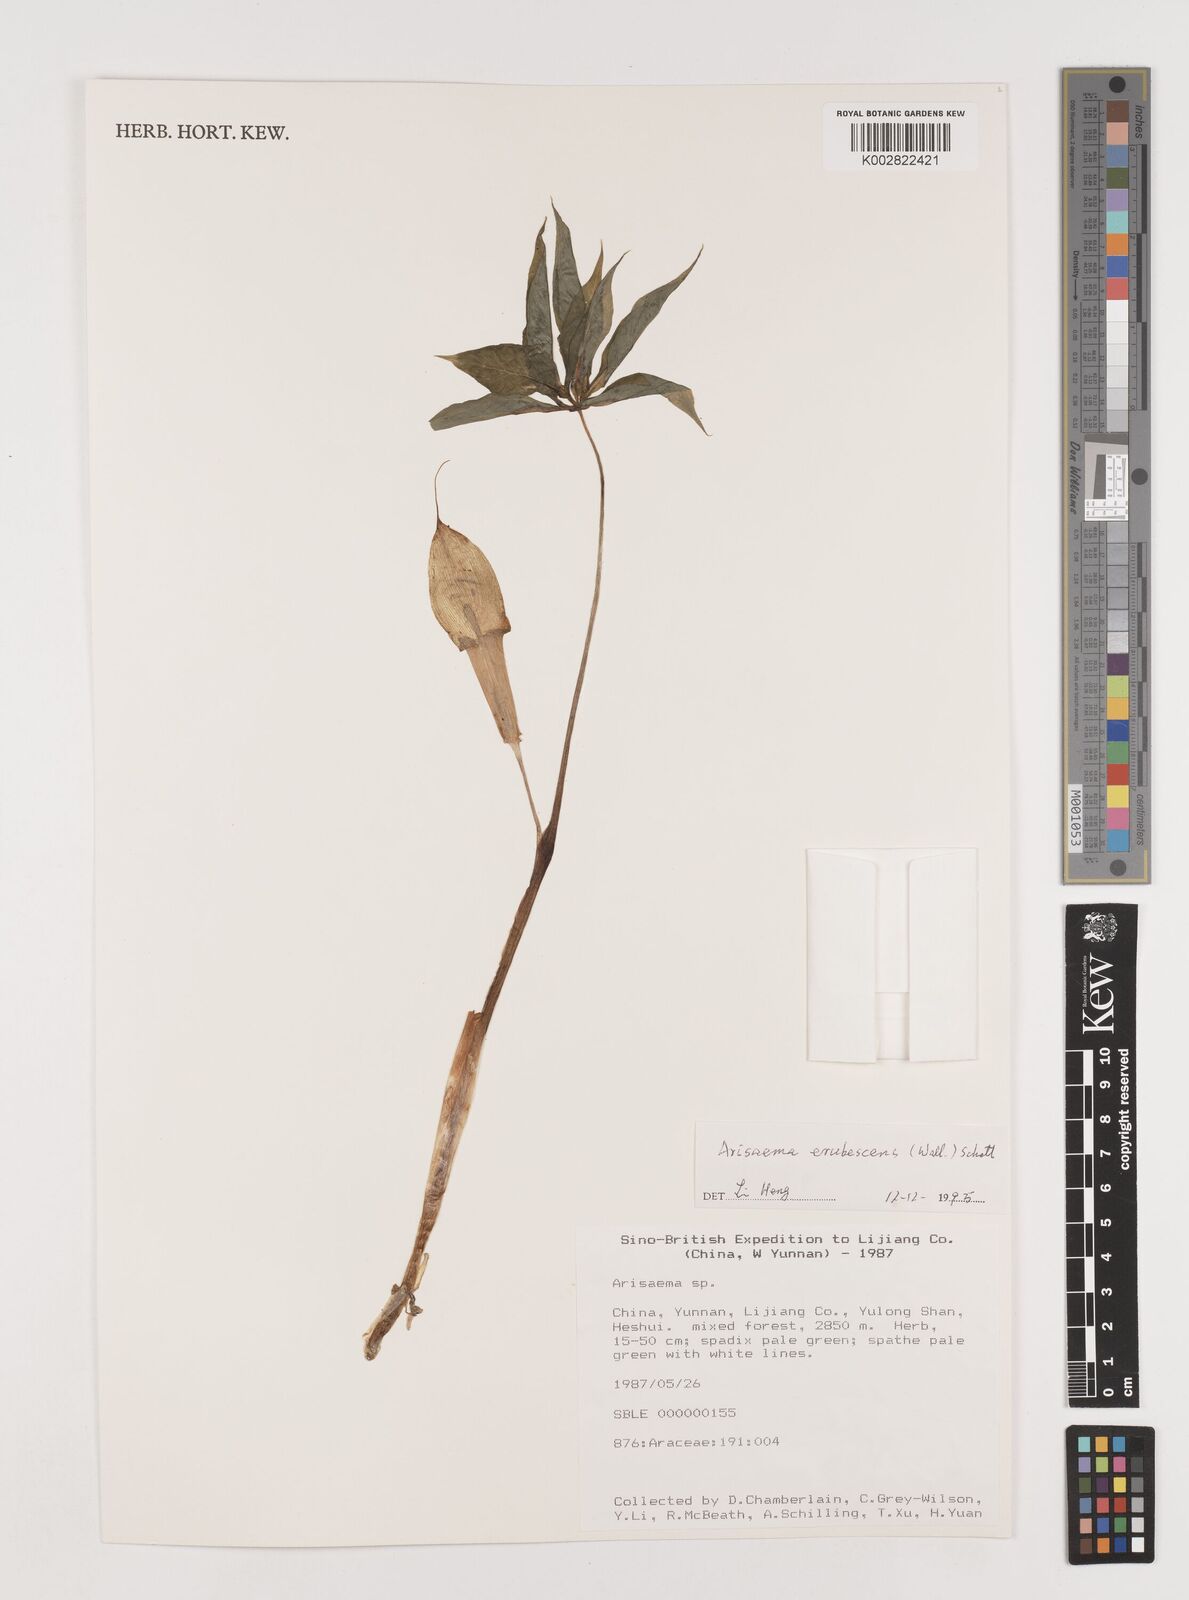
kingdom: Plantae
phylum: Tracheophyta
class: Liliopsida
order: Alismatales
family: Araceae
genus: Arisaema
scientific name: Arisaema erubescens
